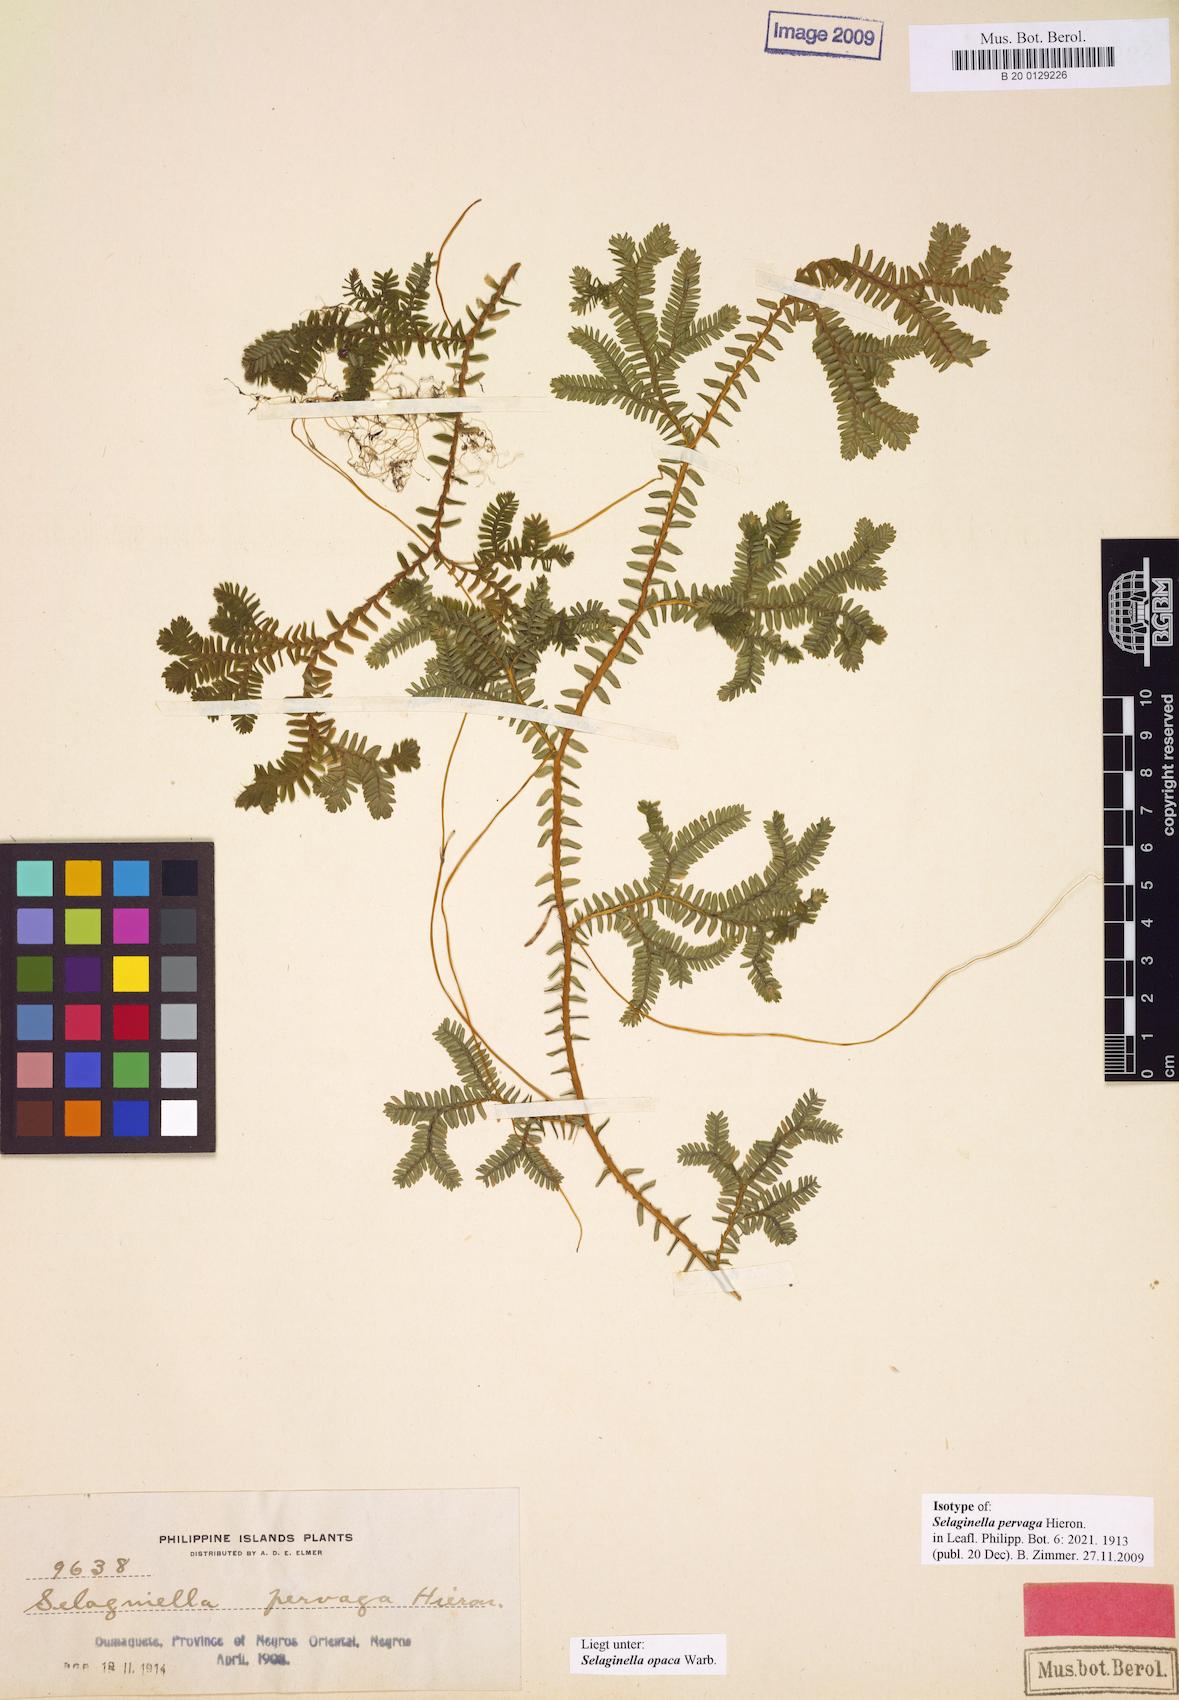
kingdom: Plantae
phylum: Tracheophyta
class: Lycopodiopsida
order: Selaginellales
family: Selaginellaceae
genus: Selaginella
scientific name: Selaginella opaca
